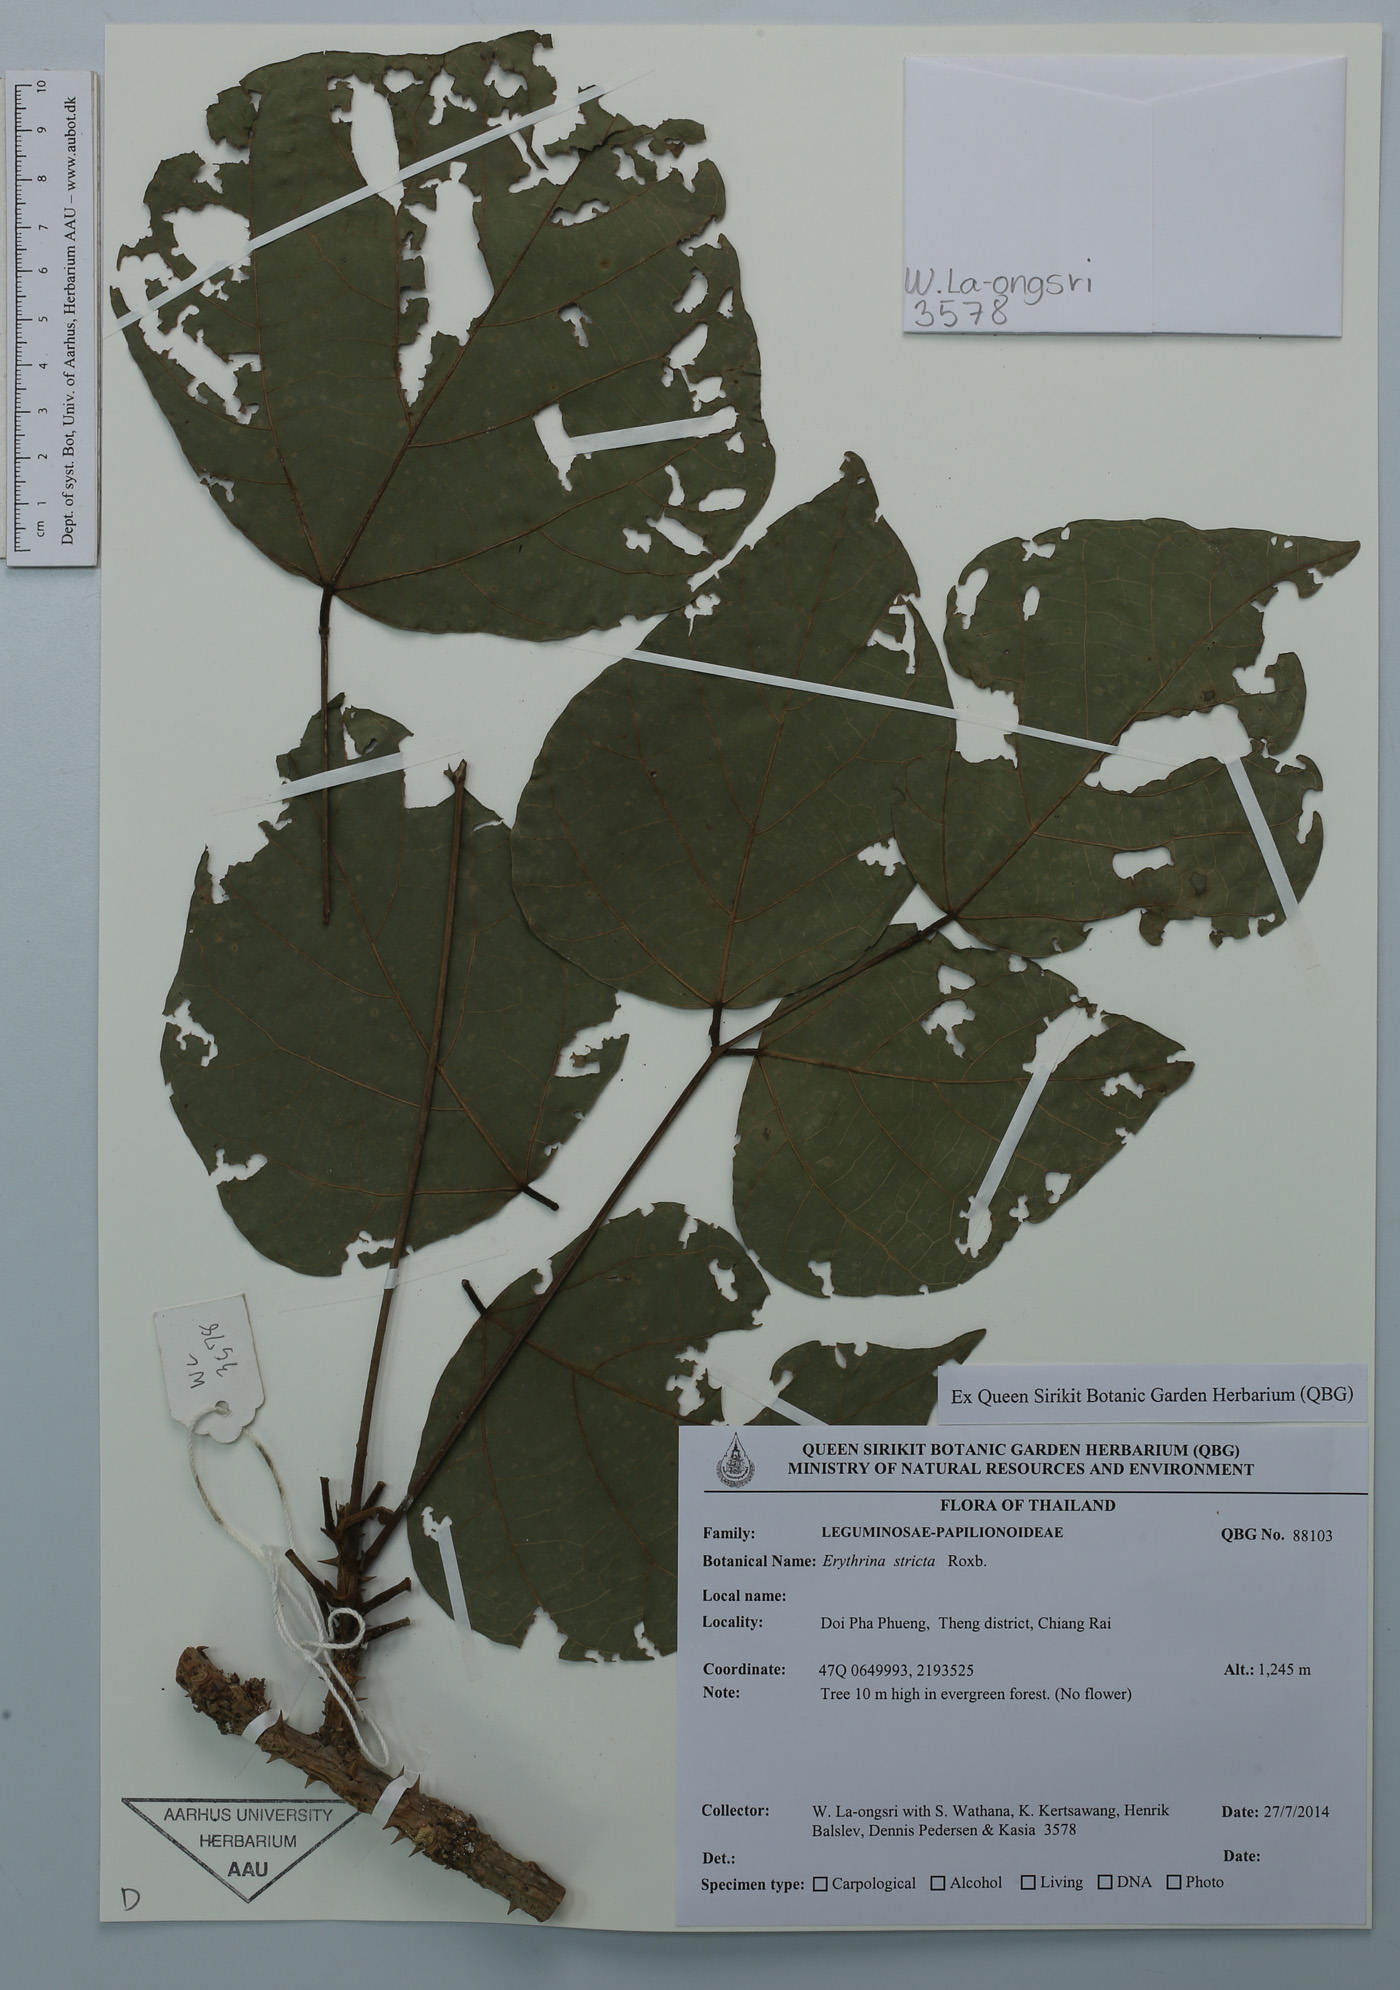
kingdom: Plantae
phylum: Tracheophyta
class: Magnoliopsida
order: Fabales
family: Fabaceae
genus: Erythrina
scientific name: Erythrina stricta
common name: Coraltree
